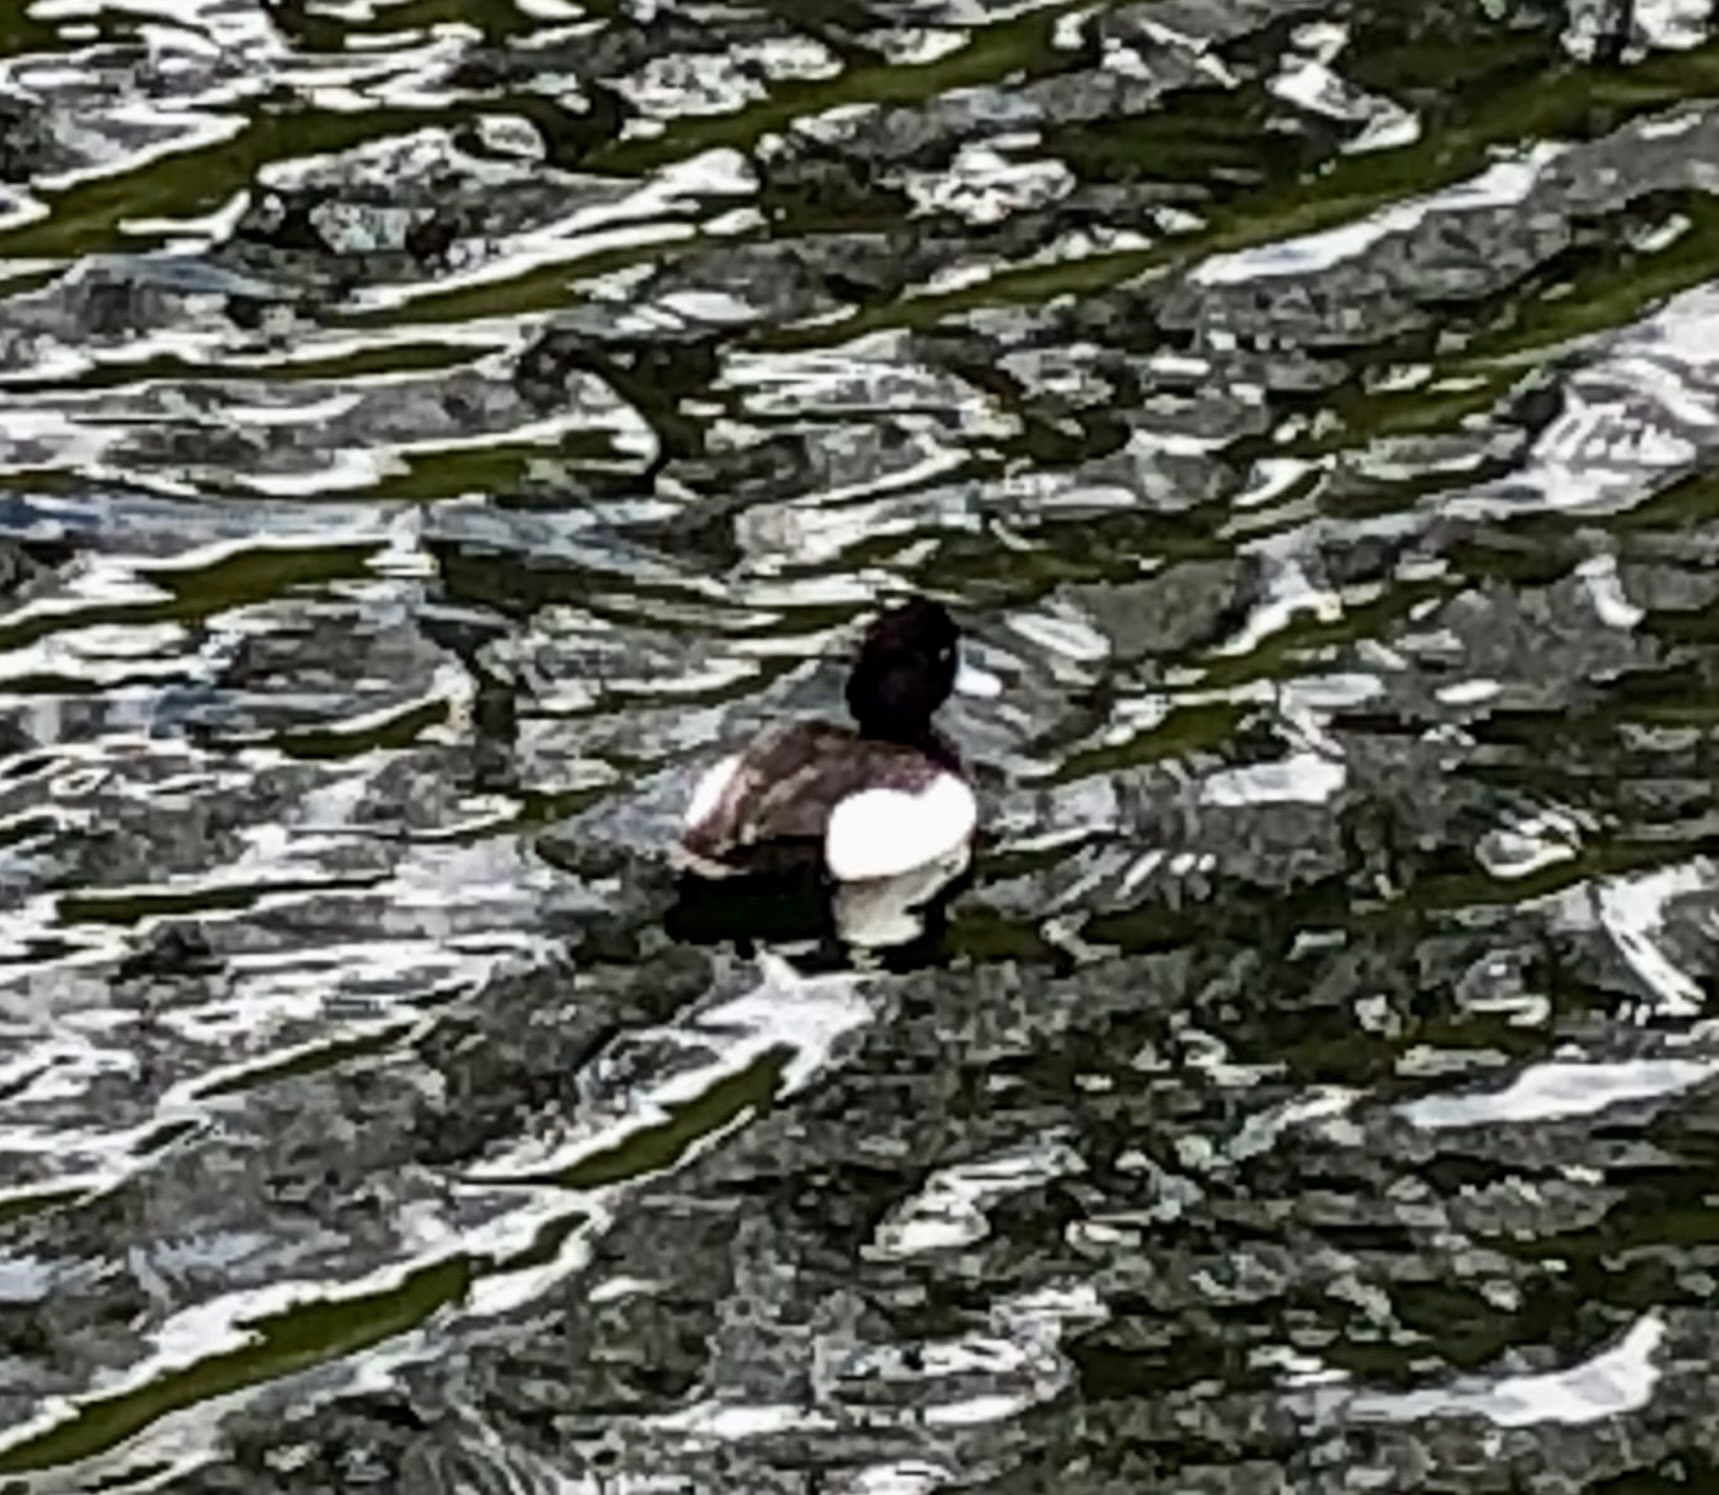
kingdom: Animalia
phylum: Chordata
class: Aves
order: Anseriformes
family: Anatidae
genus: Aythya
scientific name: Aythya fuligula
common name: Troldand
